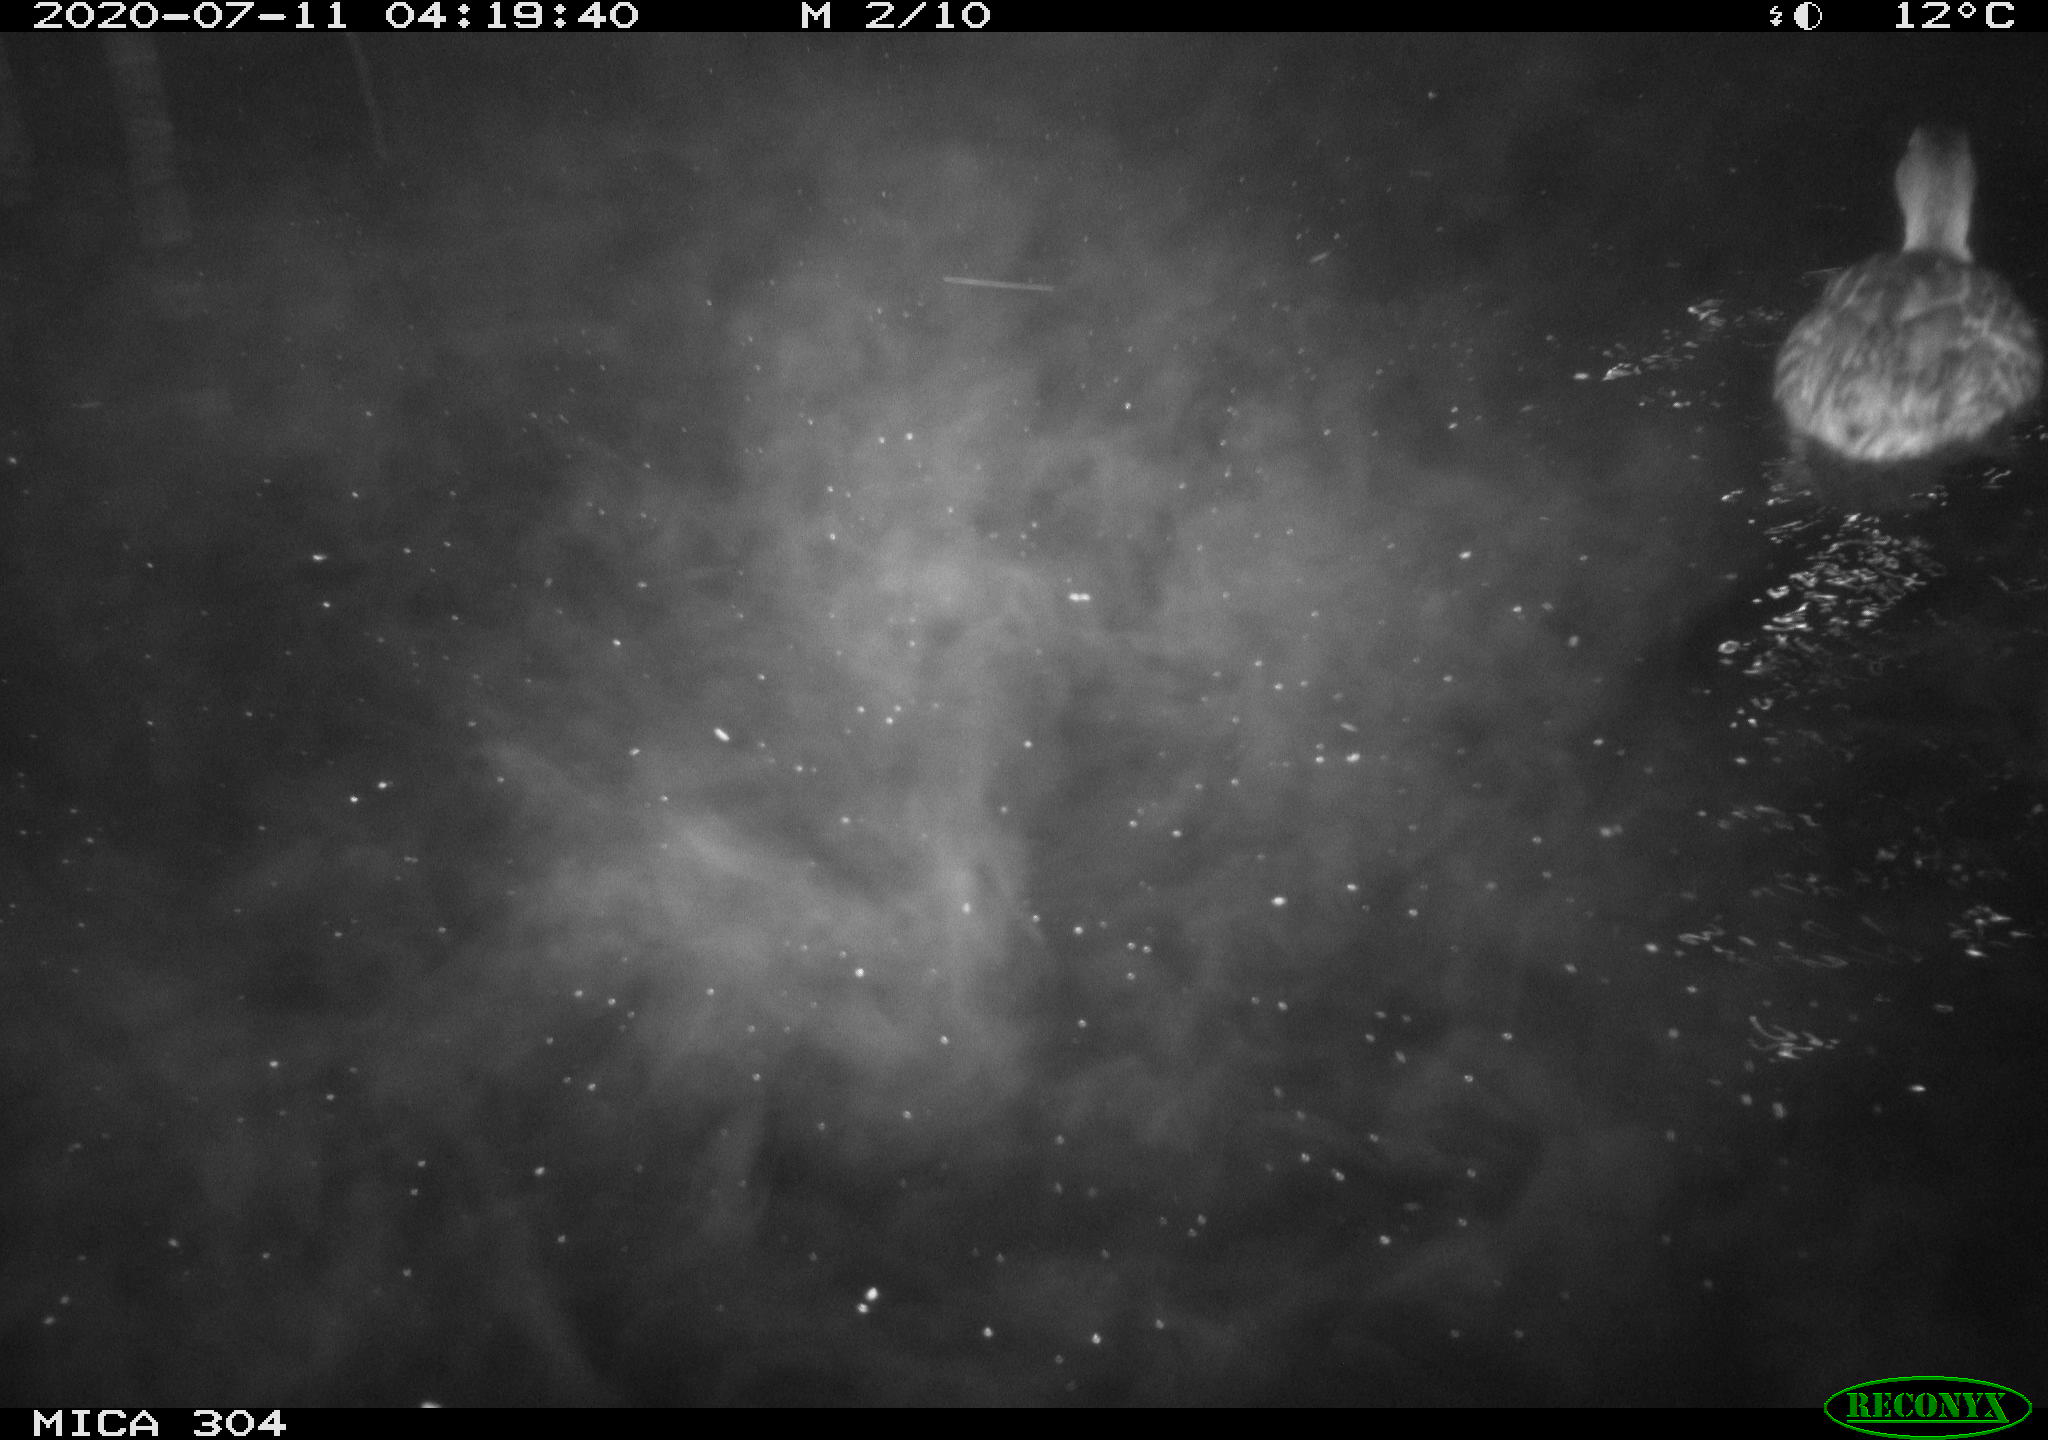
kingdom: Animalia
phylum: Chordata
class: Aves
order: Anseriformes
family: Anatidae
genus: Anas
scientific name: Anas platyrhynchos
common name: Mallard
